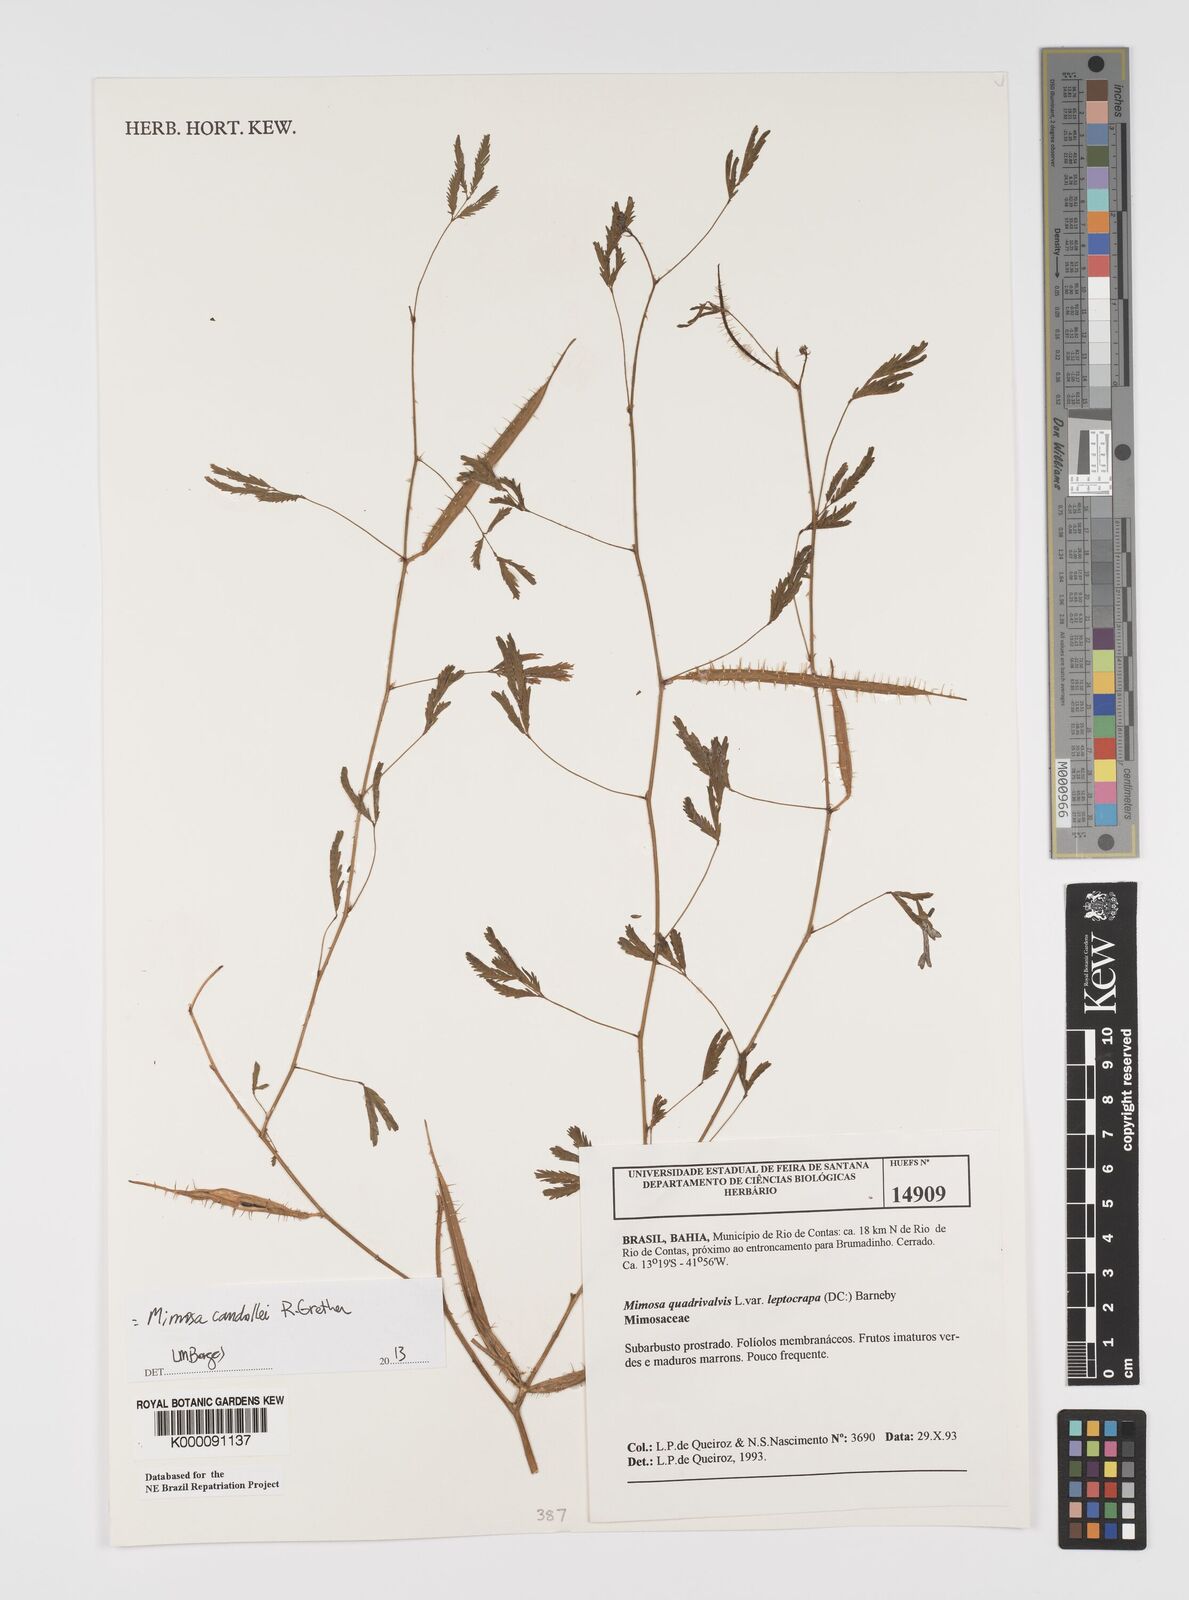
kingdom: Plantae
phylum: Tracheophyta
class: Magnoliopsida
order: Fabales
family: Fabaceae
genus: Mimosa
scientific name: Mimosa candollei
